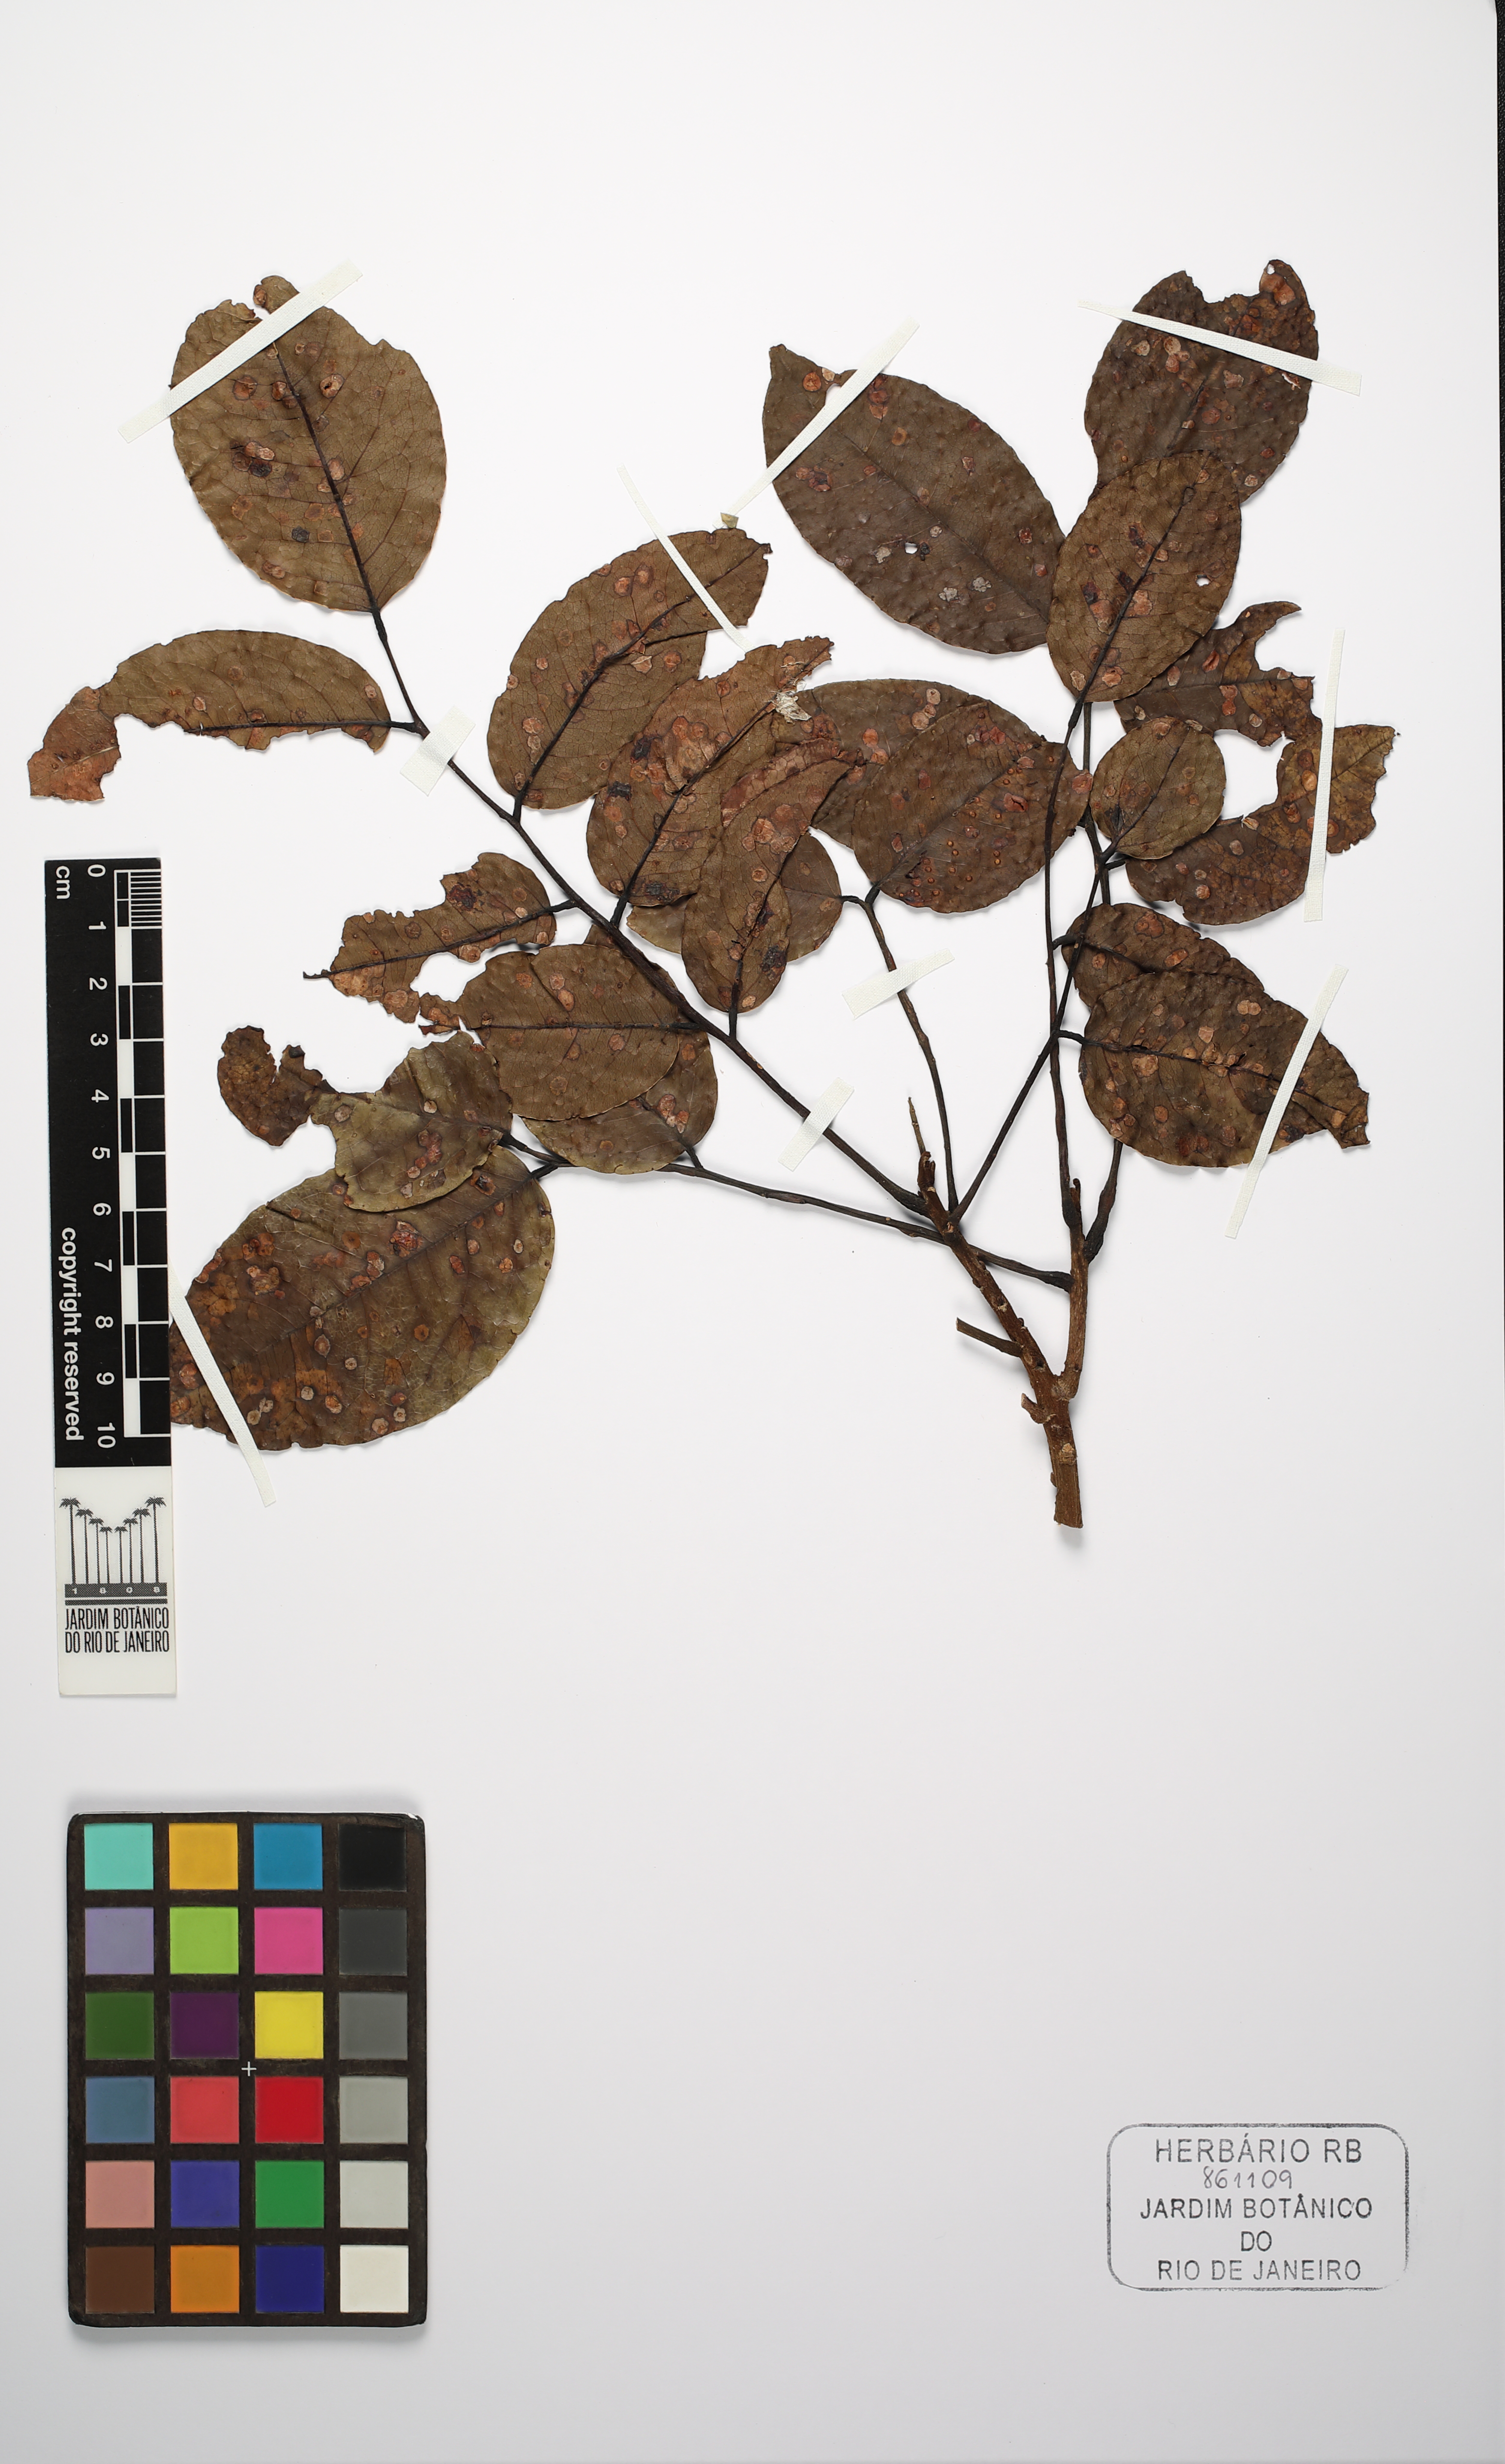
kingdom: Plantae
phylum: Tracheophyta
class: Magnoliopsida
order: Fabales
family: Fabaceae
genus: Hymenolobium
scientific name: Hymenolobium nitidum
